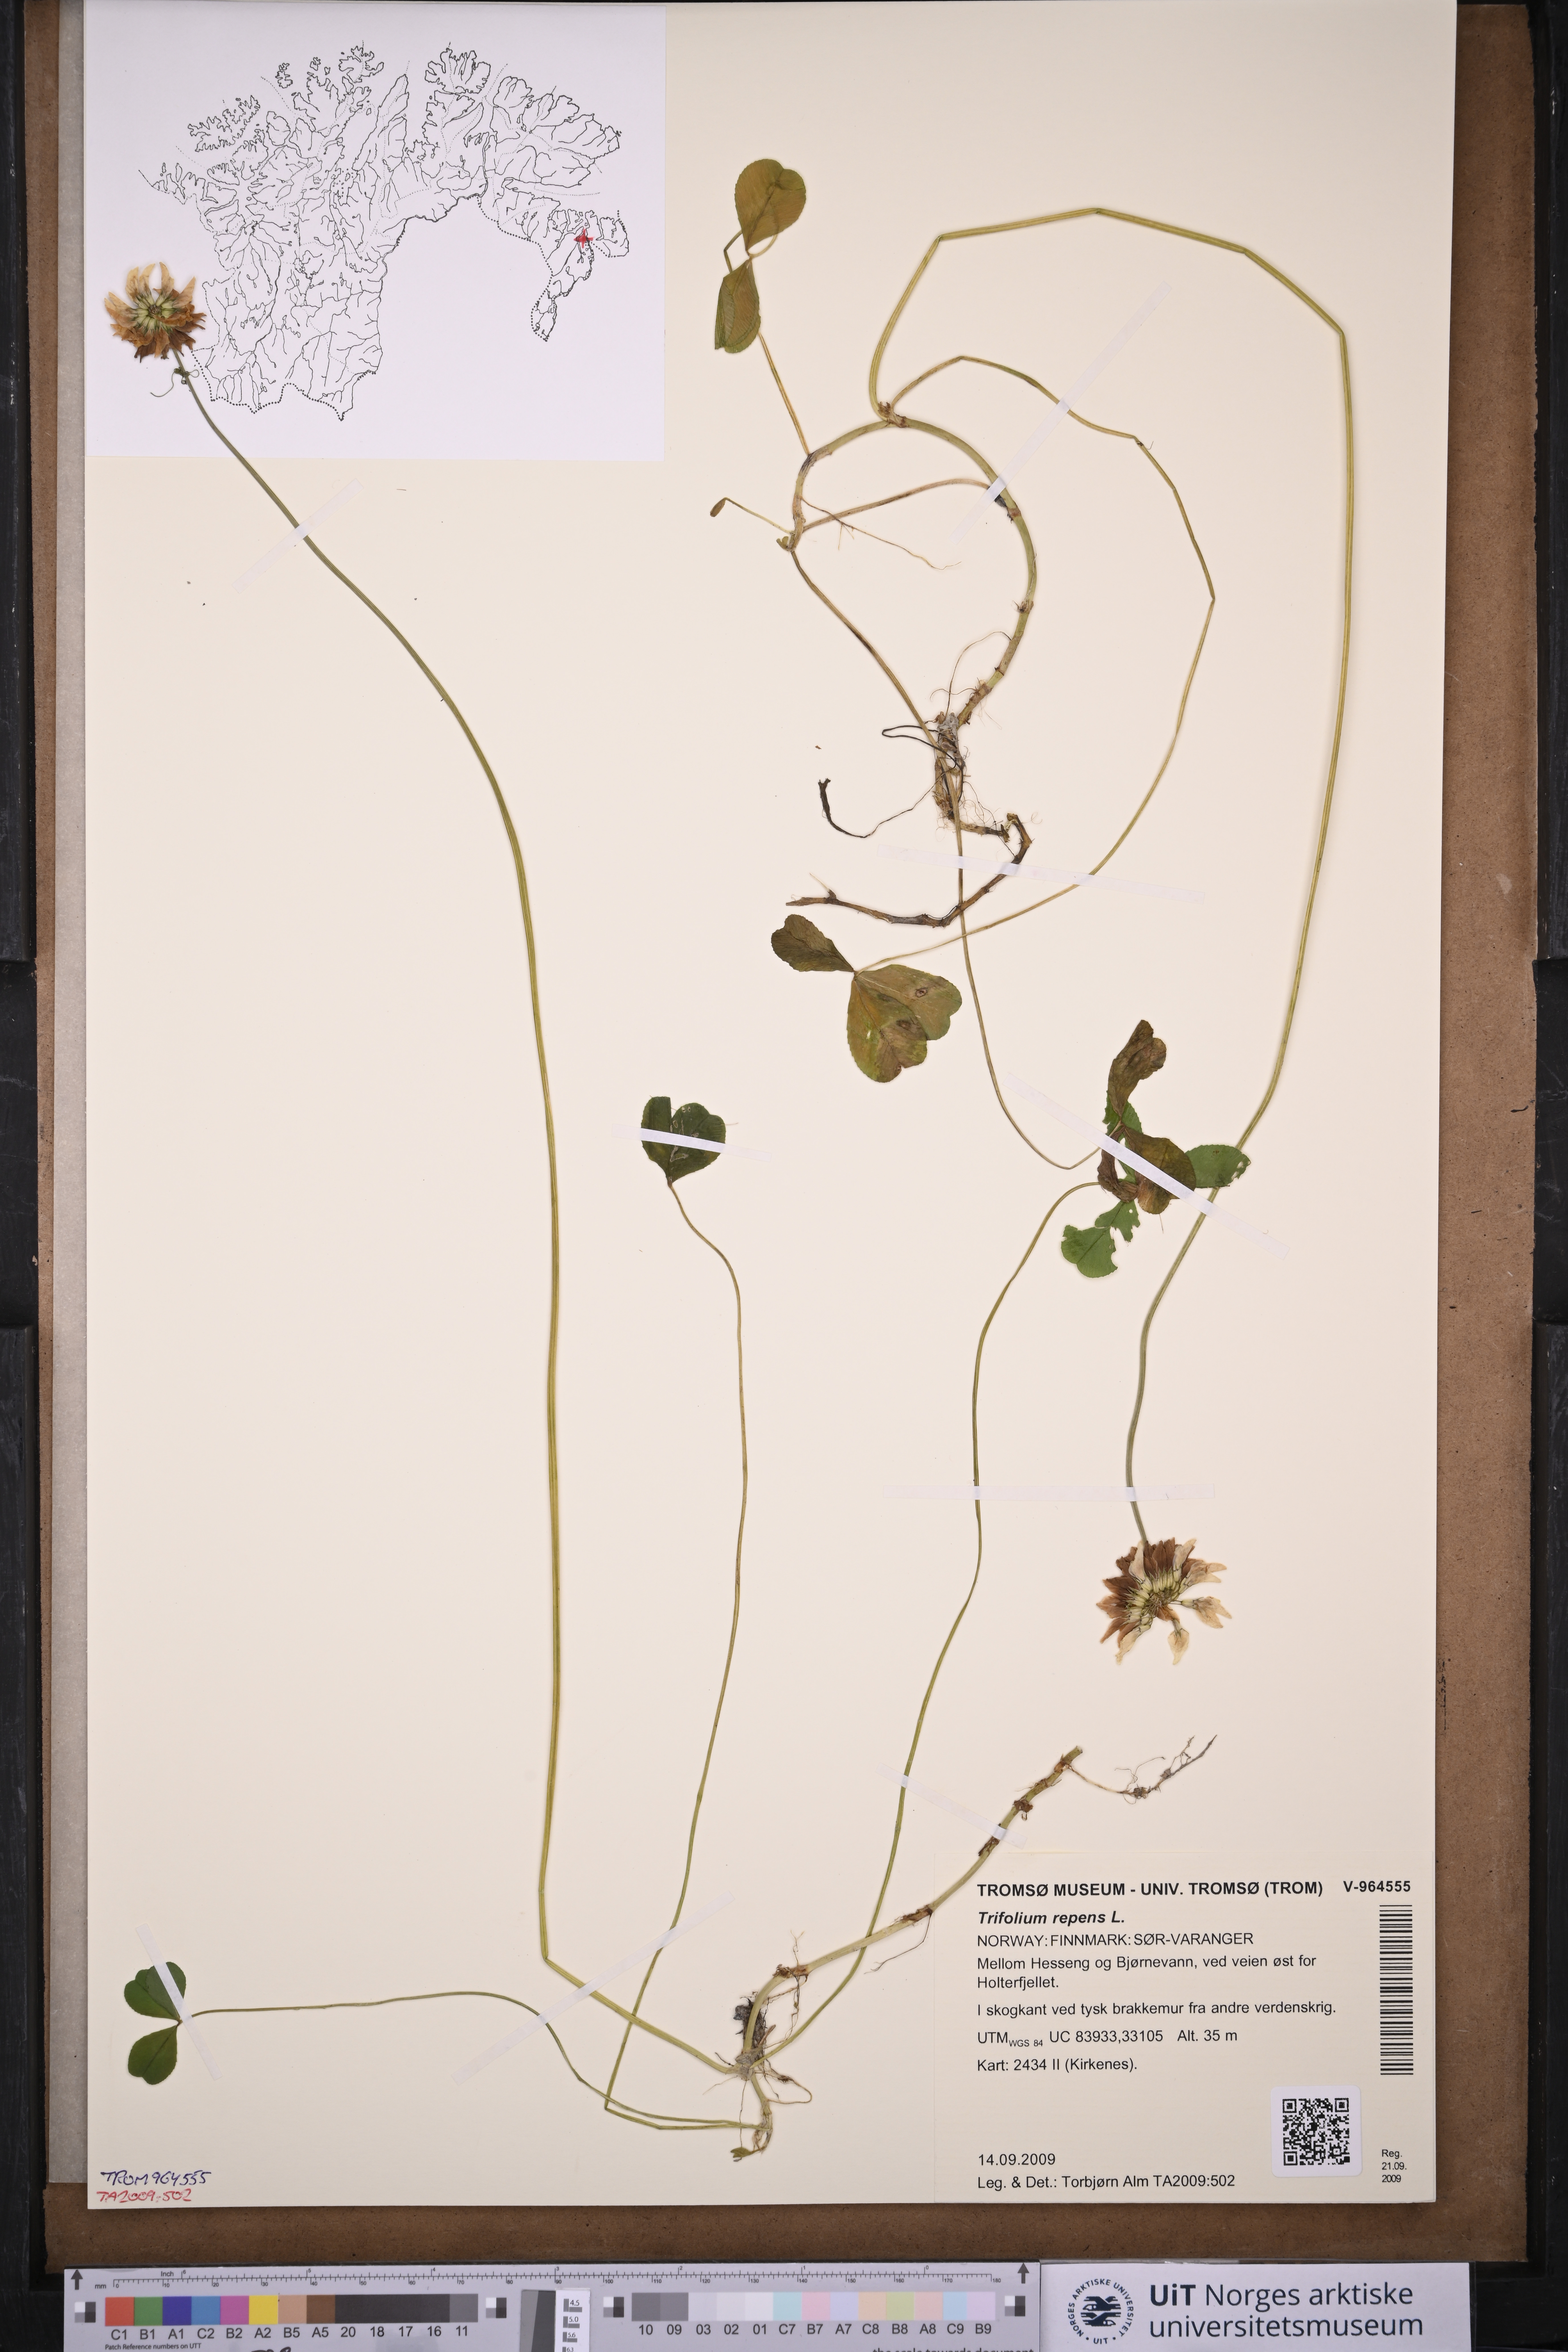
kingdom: Plantae
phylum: Tracheophyta
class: Magnoliopsida
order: Fabales
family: Fabaceae
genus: Trifolium
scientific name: Trifolium repens
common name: White clover
